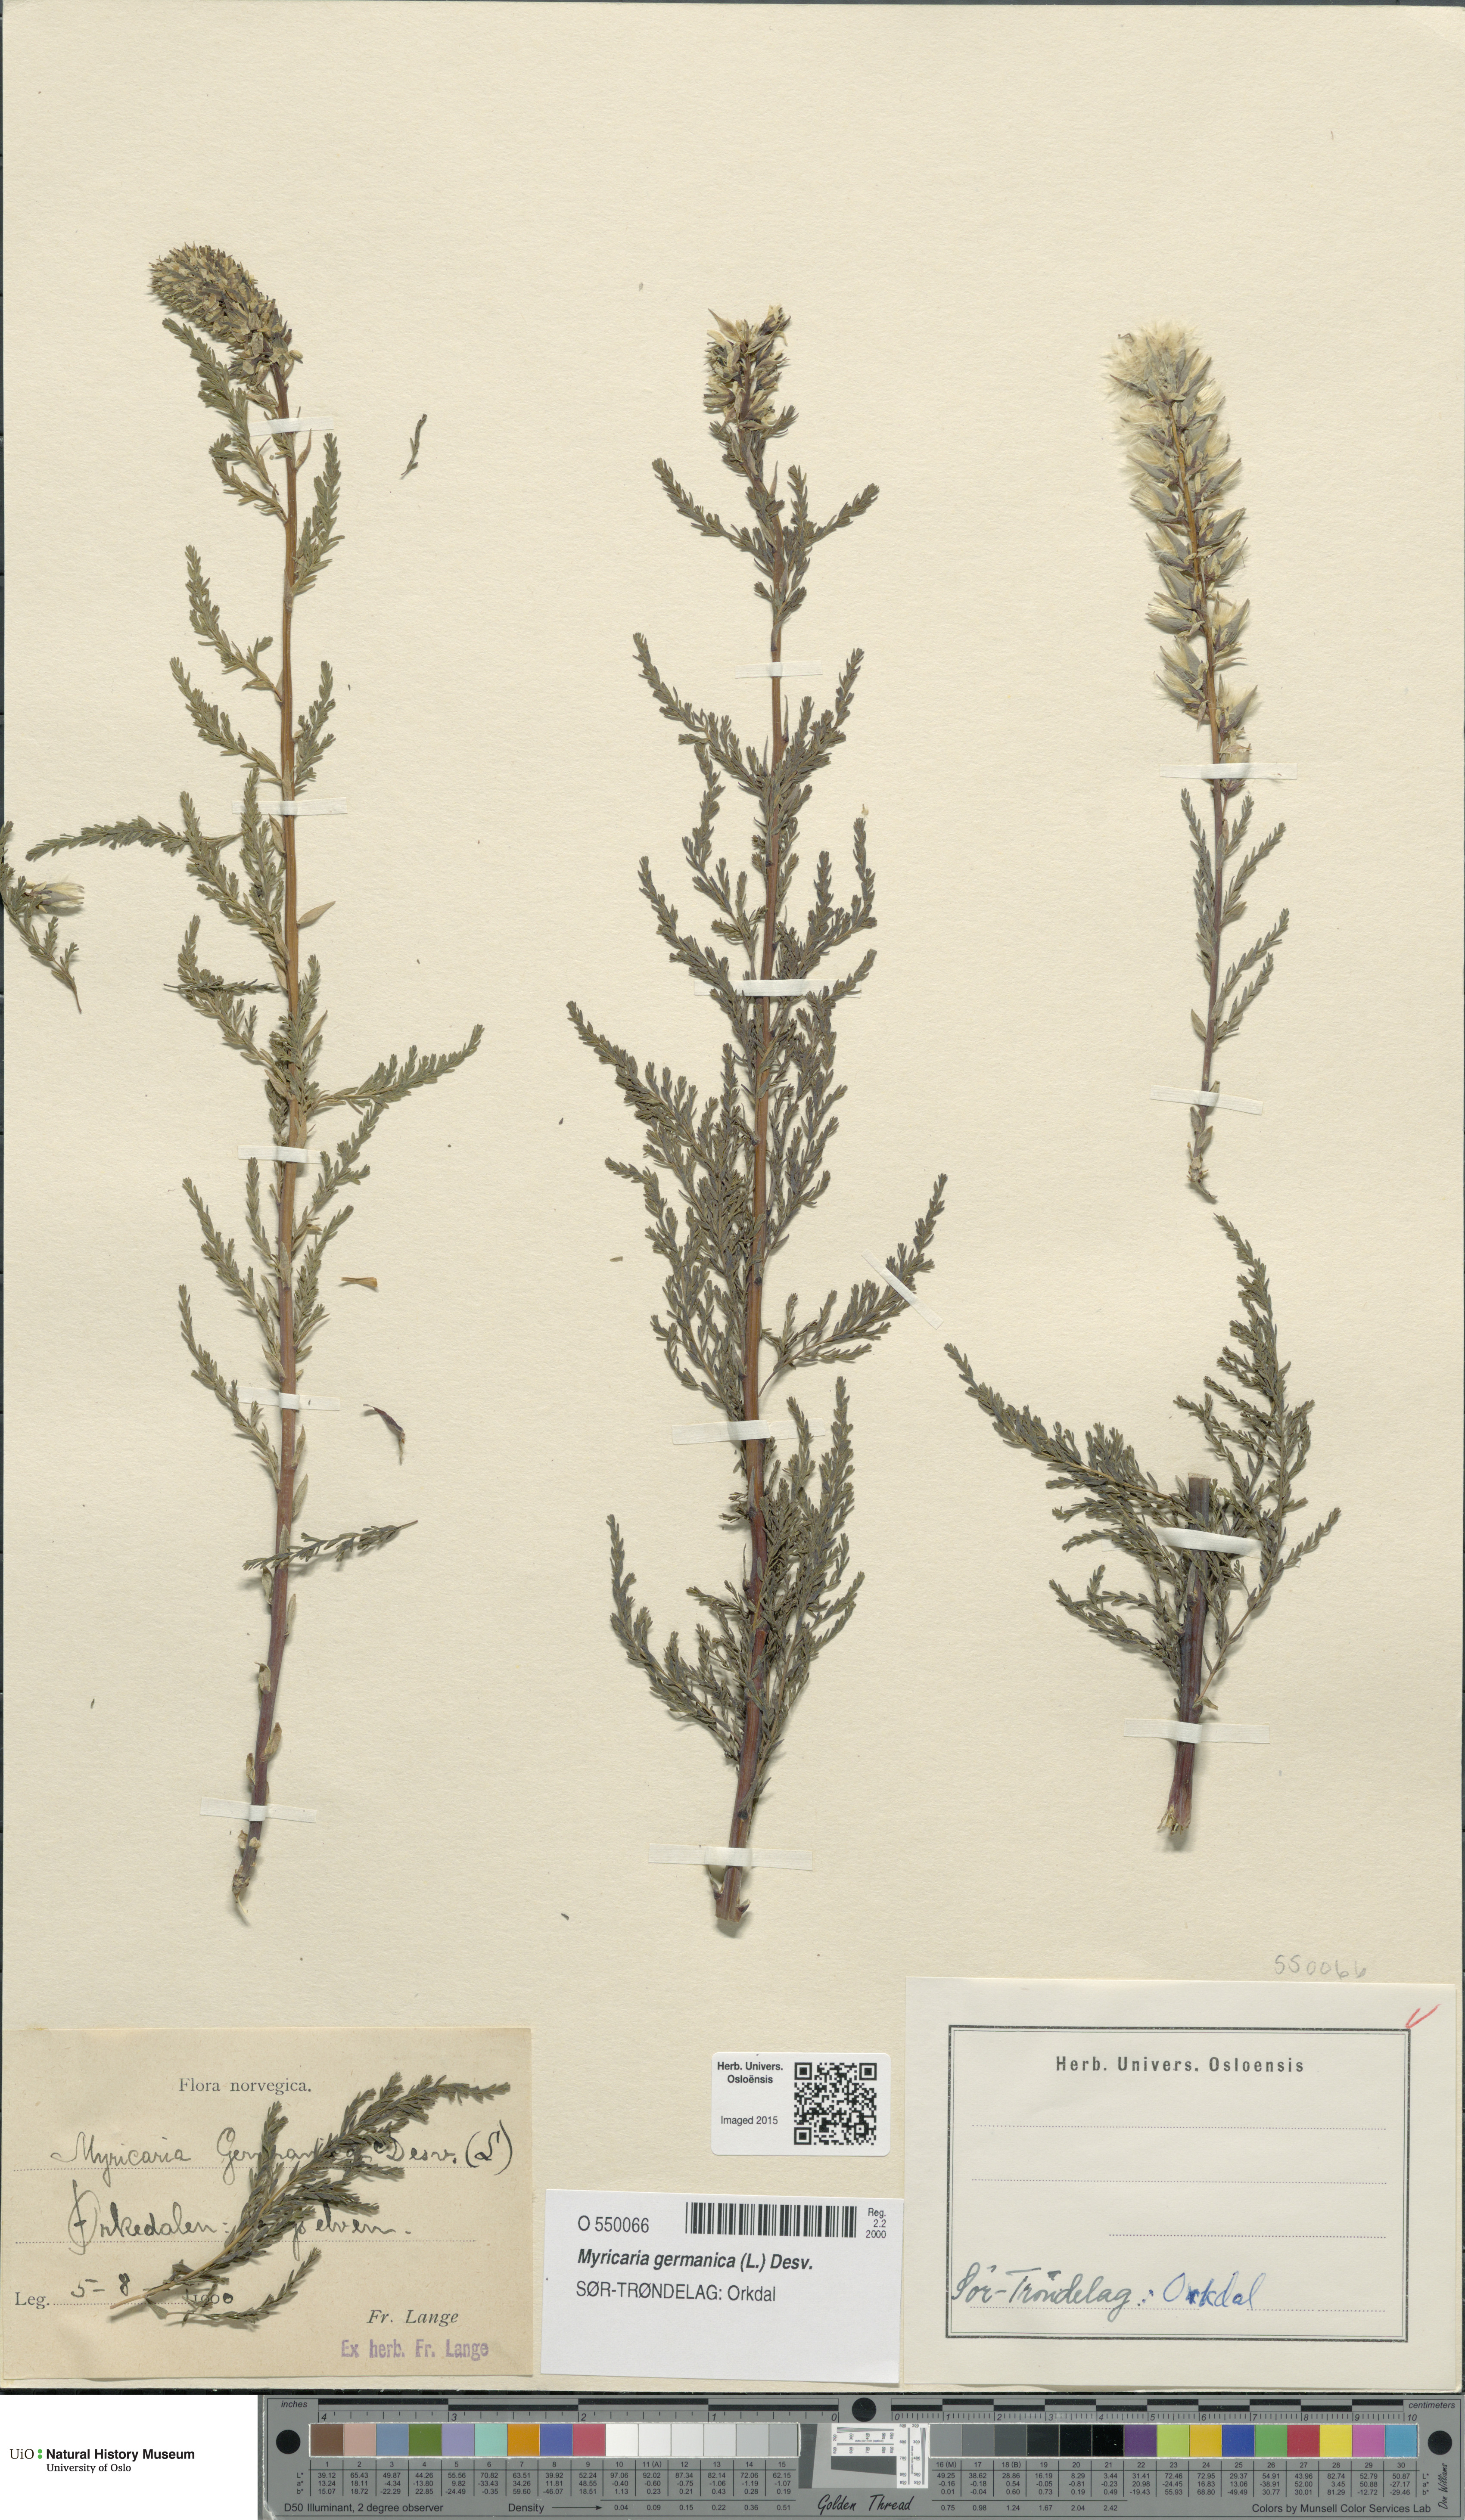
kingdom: Plantae
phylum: Tracheophyta
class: Magnoliopsida
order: Caryophyllales
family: Tamaricaceae
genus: Myricaria
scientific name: Myricaria germanica
